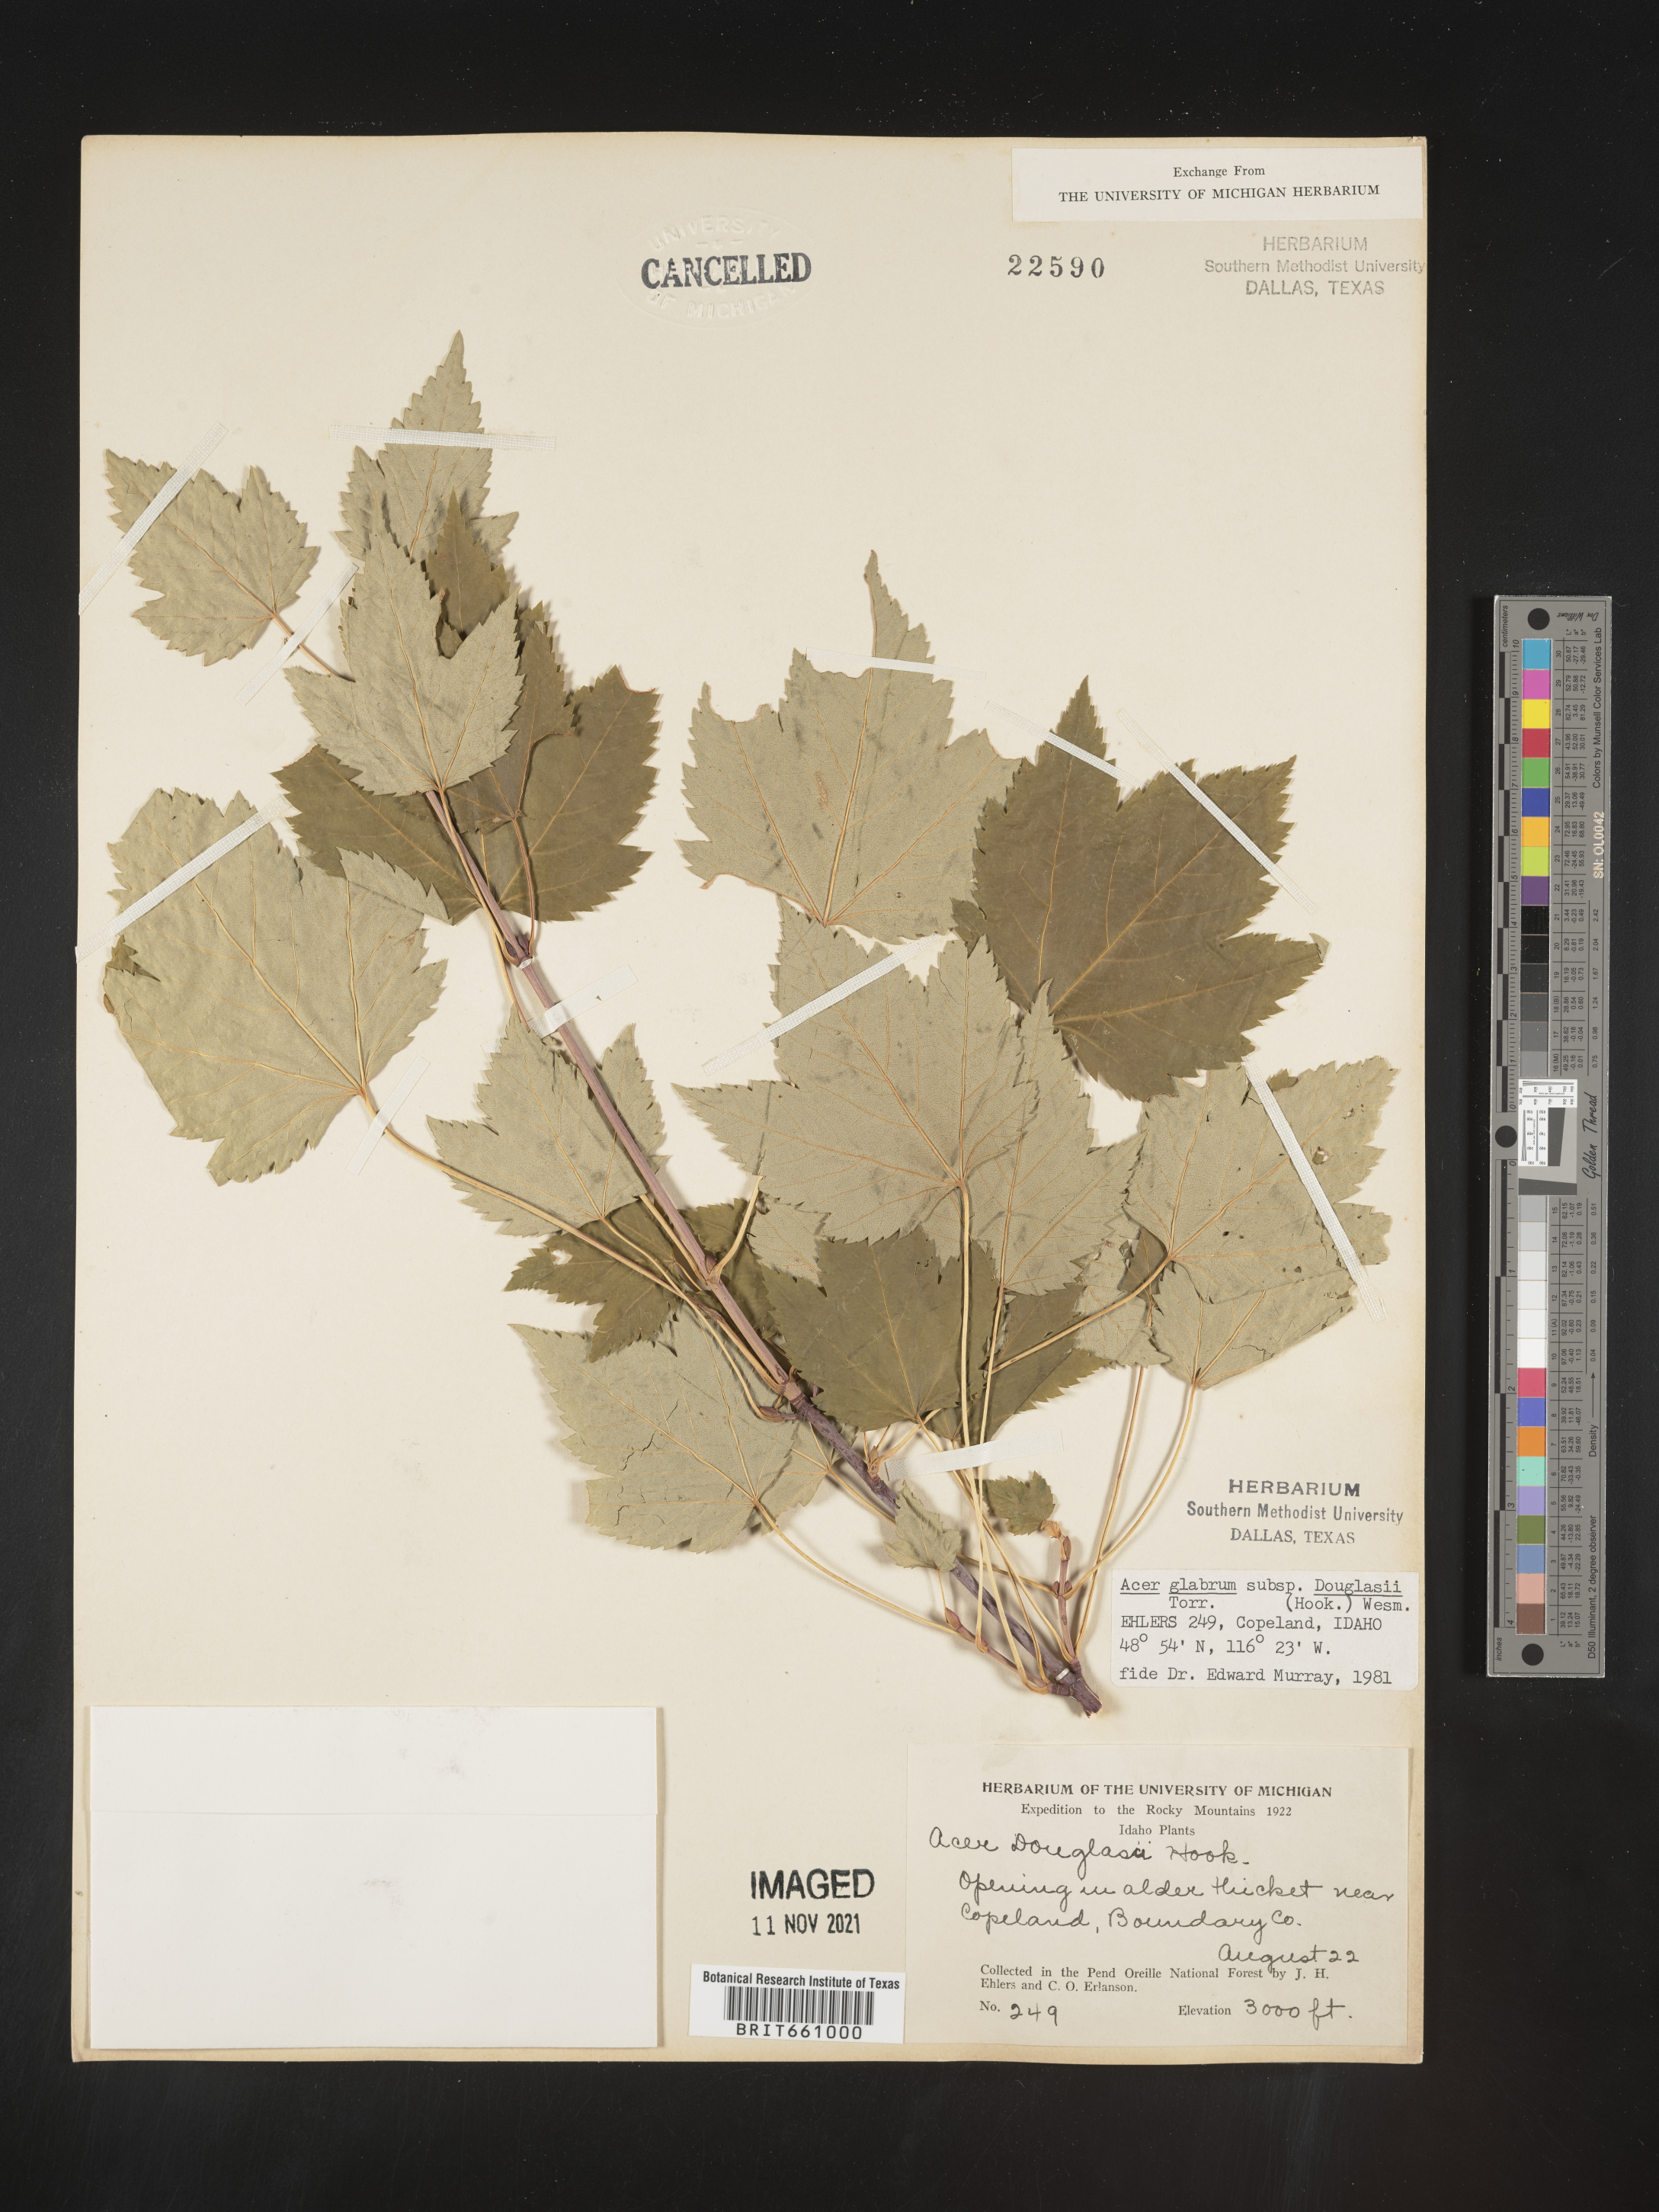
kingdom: Plantae
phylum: Tracheophyta
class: Magnoliopsida
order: Sapindales
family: Sapindaceae
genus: Acer
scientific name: Acer glabrum
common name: Rocky mountain maple
